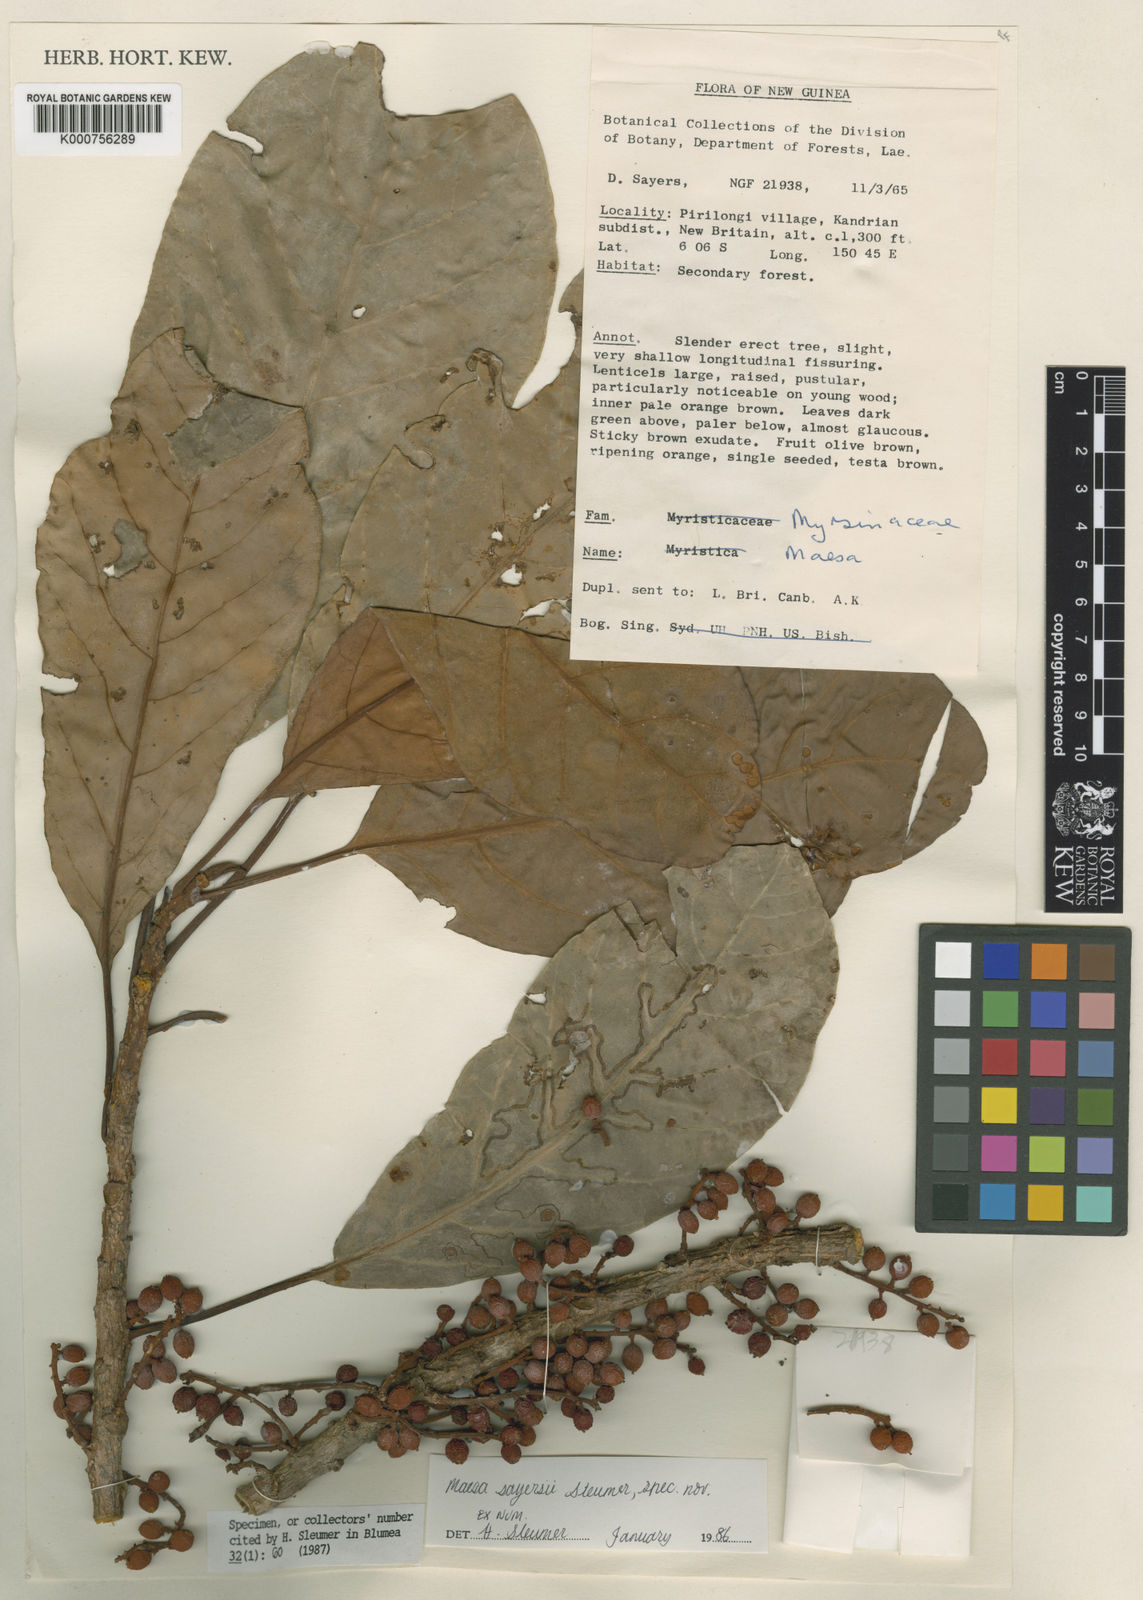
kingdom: Plantae
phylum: Tracheophyta
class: Magnoliopsida
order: Ericales
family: Primulaceae
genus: Maesa
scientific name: Maesa sayersii
